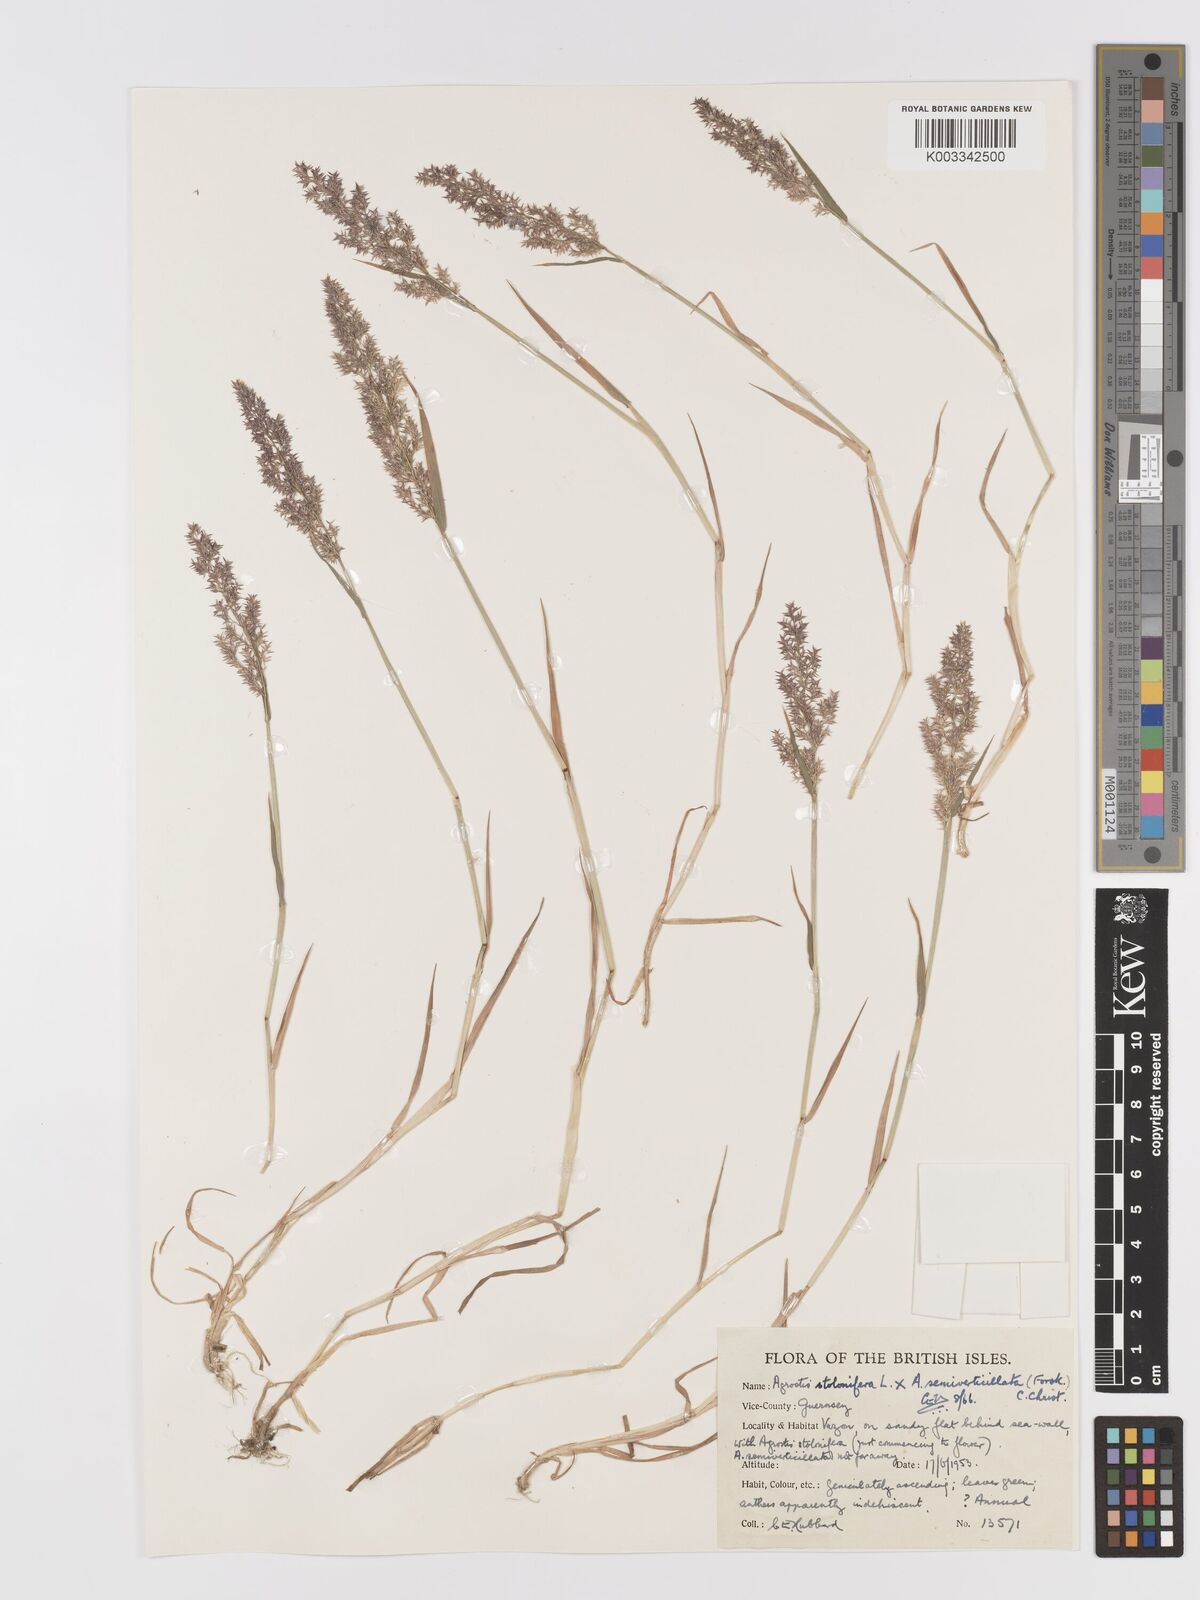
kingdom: Plantae
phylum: Tracheophyta
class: Liliopsida
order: Poales
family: Poaceae
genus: Agrostis
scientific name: Agrostis gigantea
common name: Black bent
